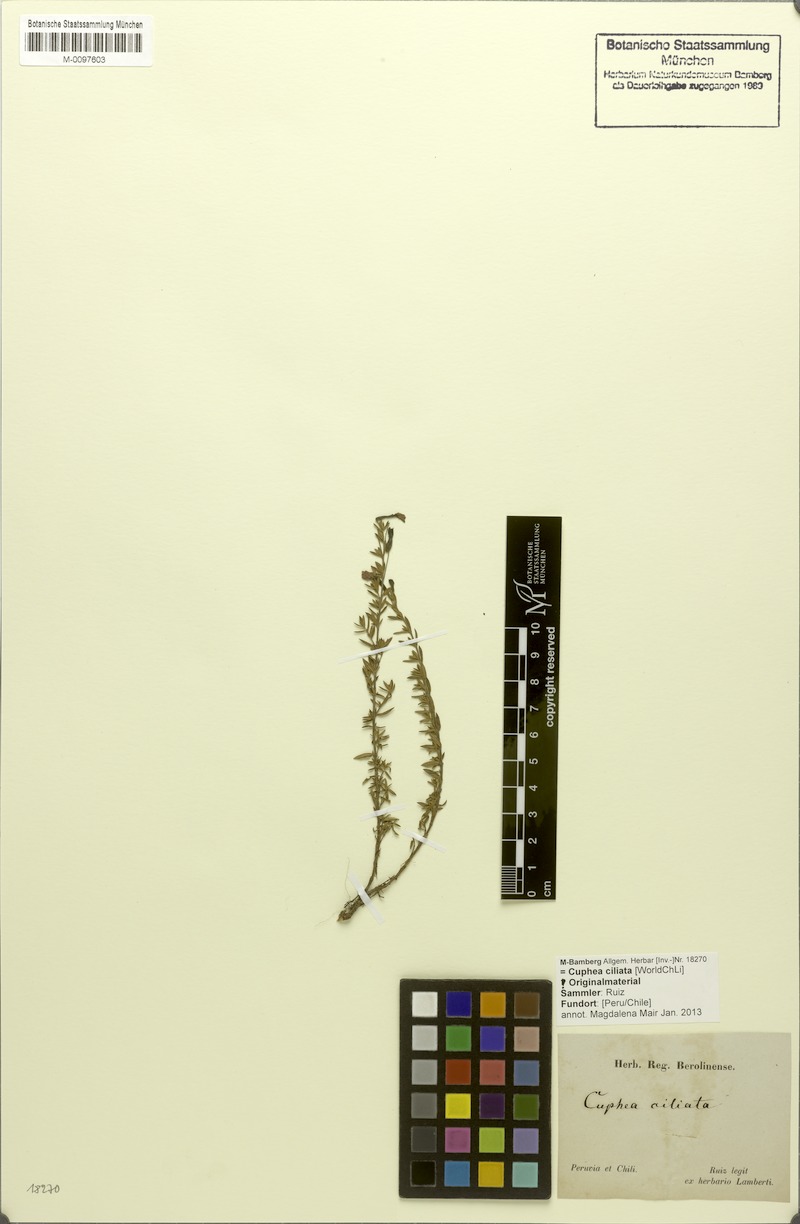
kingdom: Plantae
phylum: Tracheophyta
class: Magnoliopsida
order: Myrtales
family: Lythraceae
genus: Cuphea
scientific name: Cuphea ciliata
